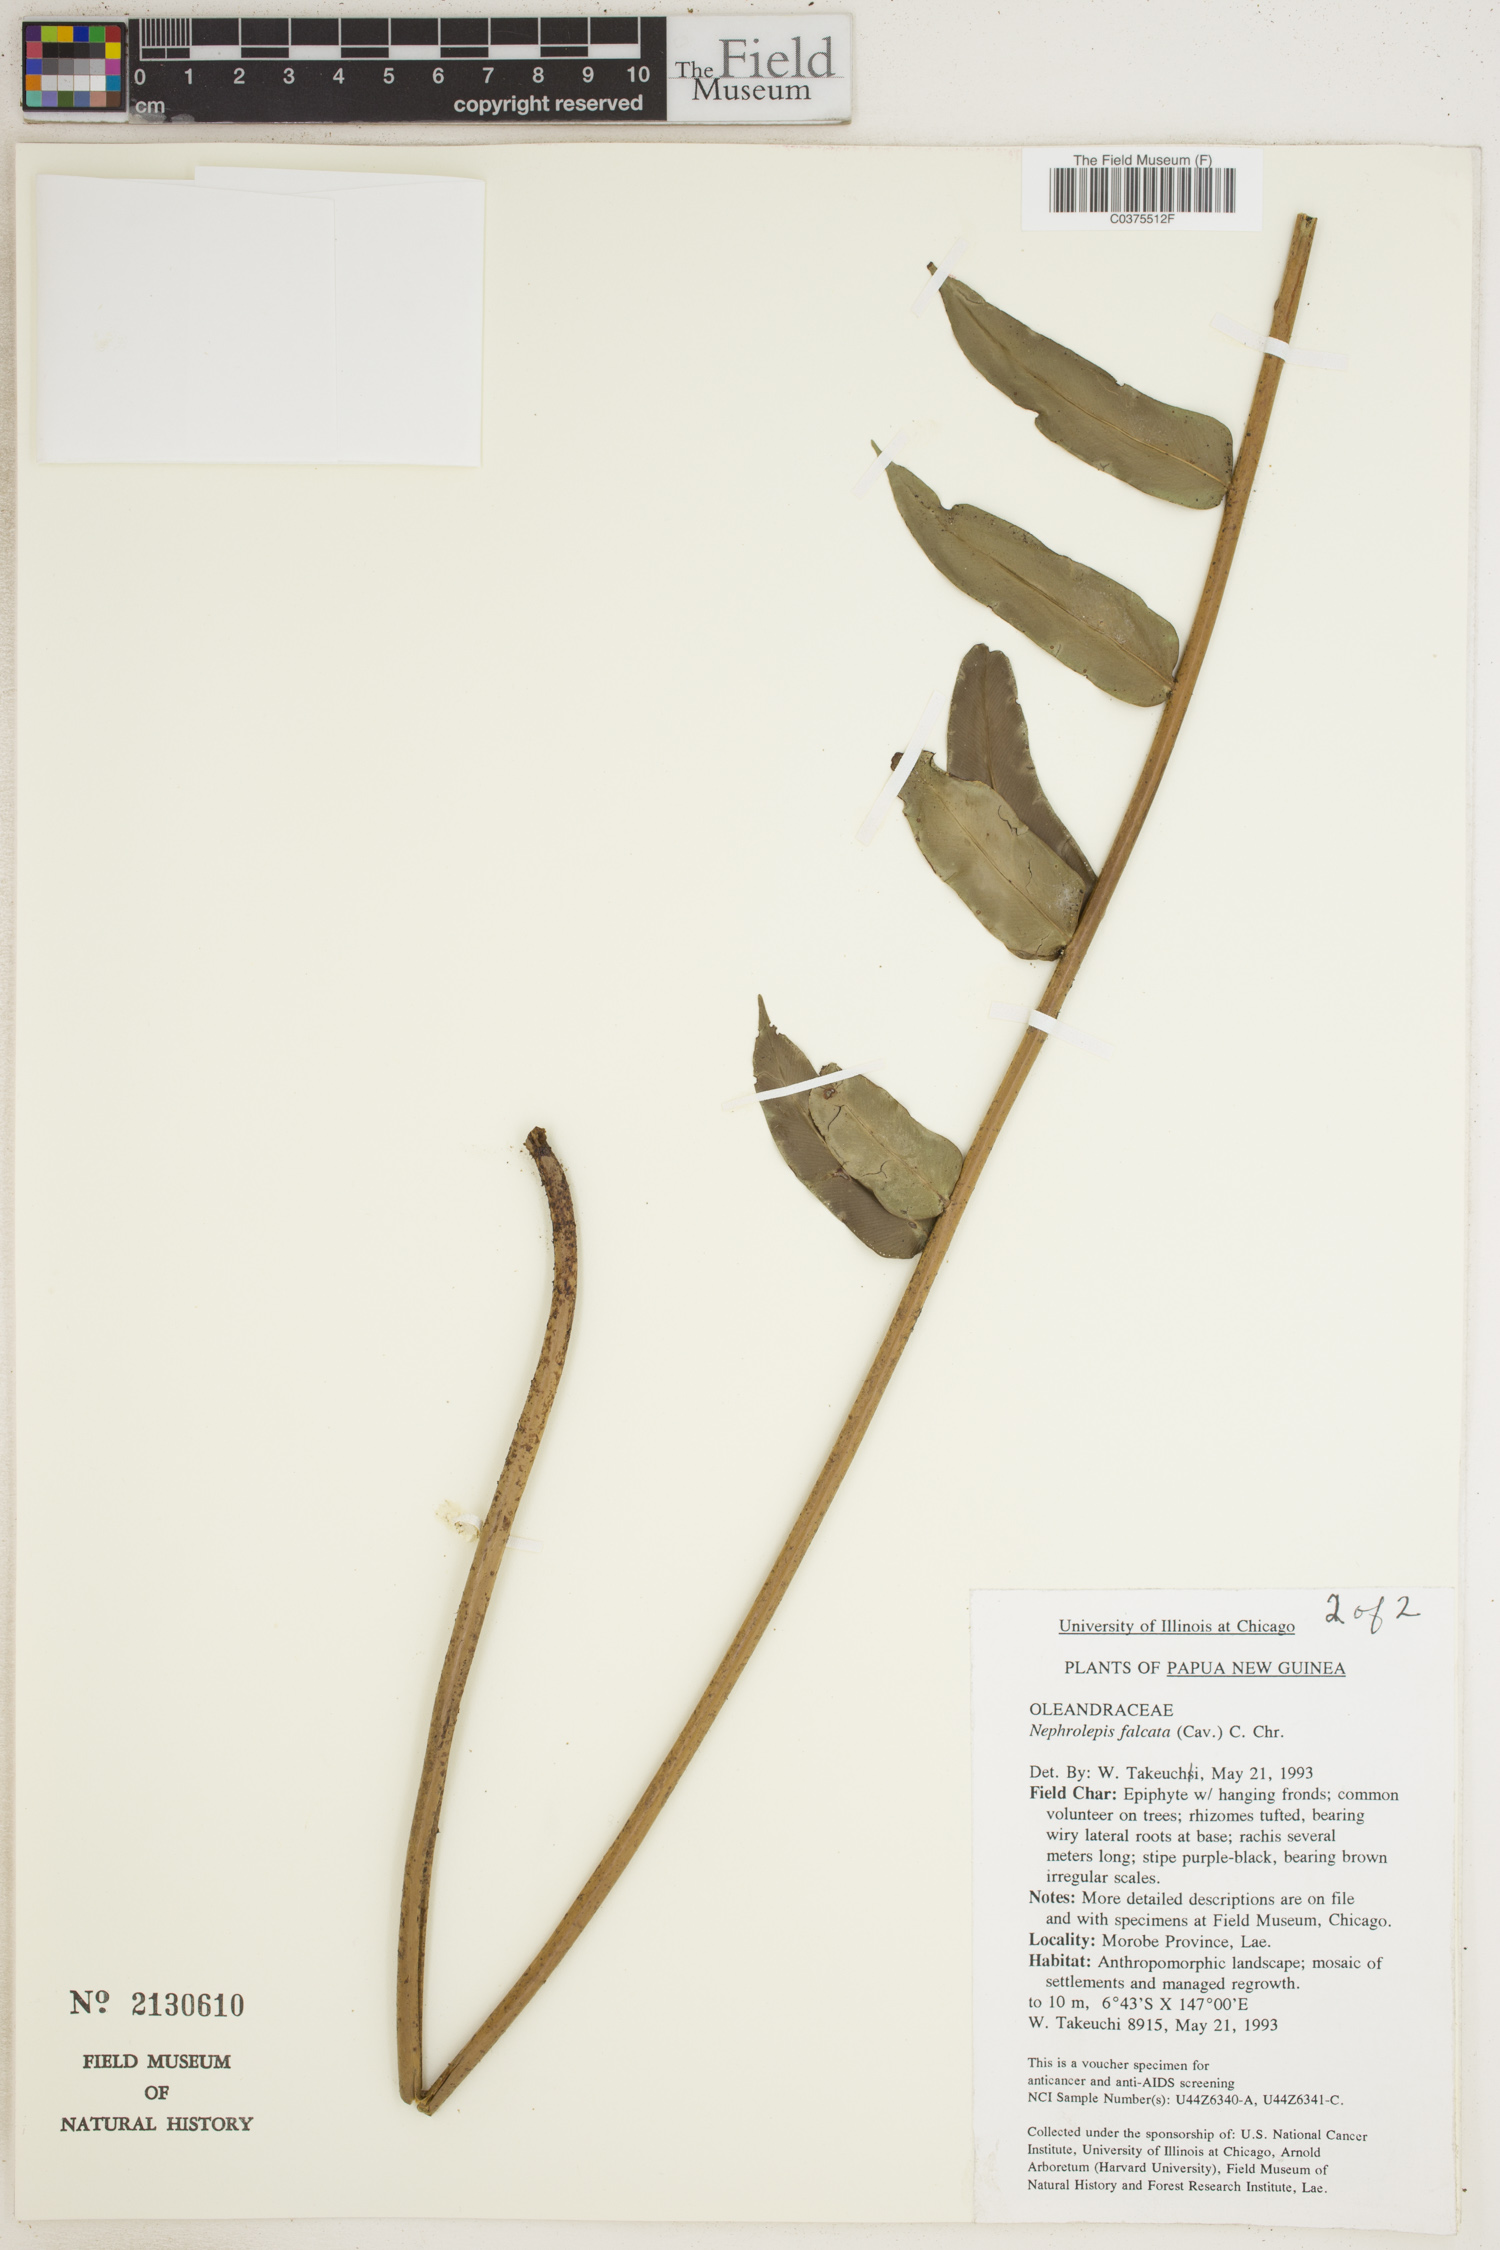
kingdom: Plantae
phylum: Tracheophyta
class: Polypodiopsida
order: Polypodiales
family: Nephrolepidaceae
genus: Nephrolepis
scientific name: Nephrolepis falcata
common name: Fishtail swordfern
